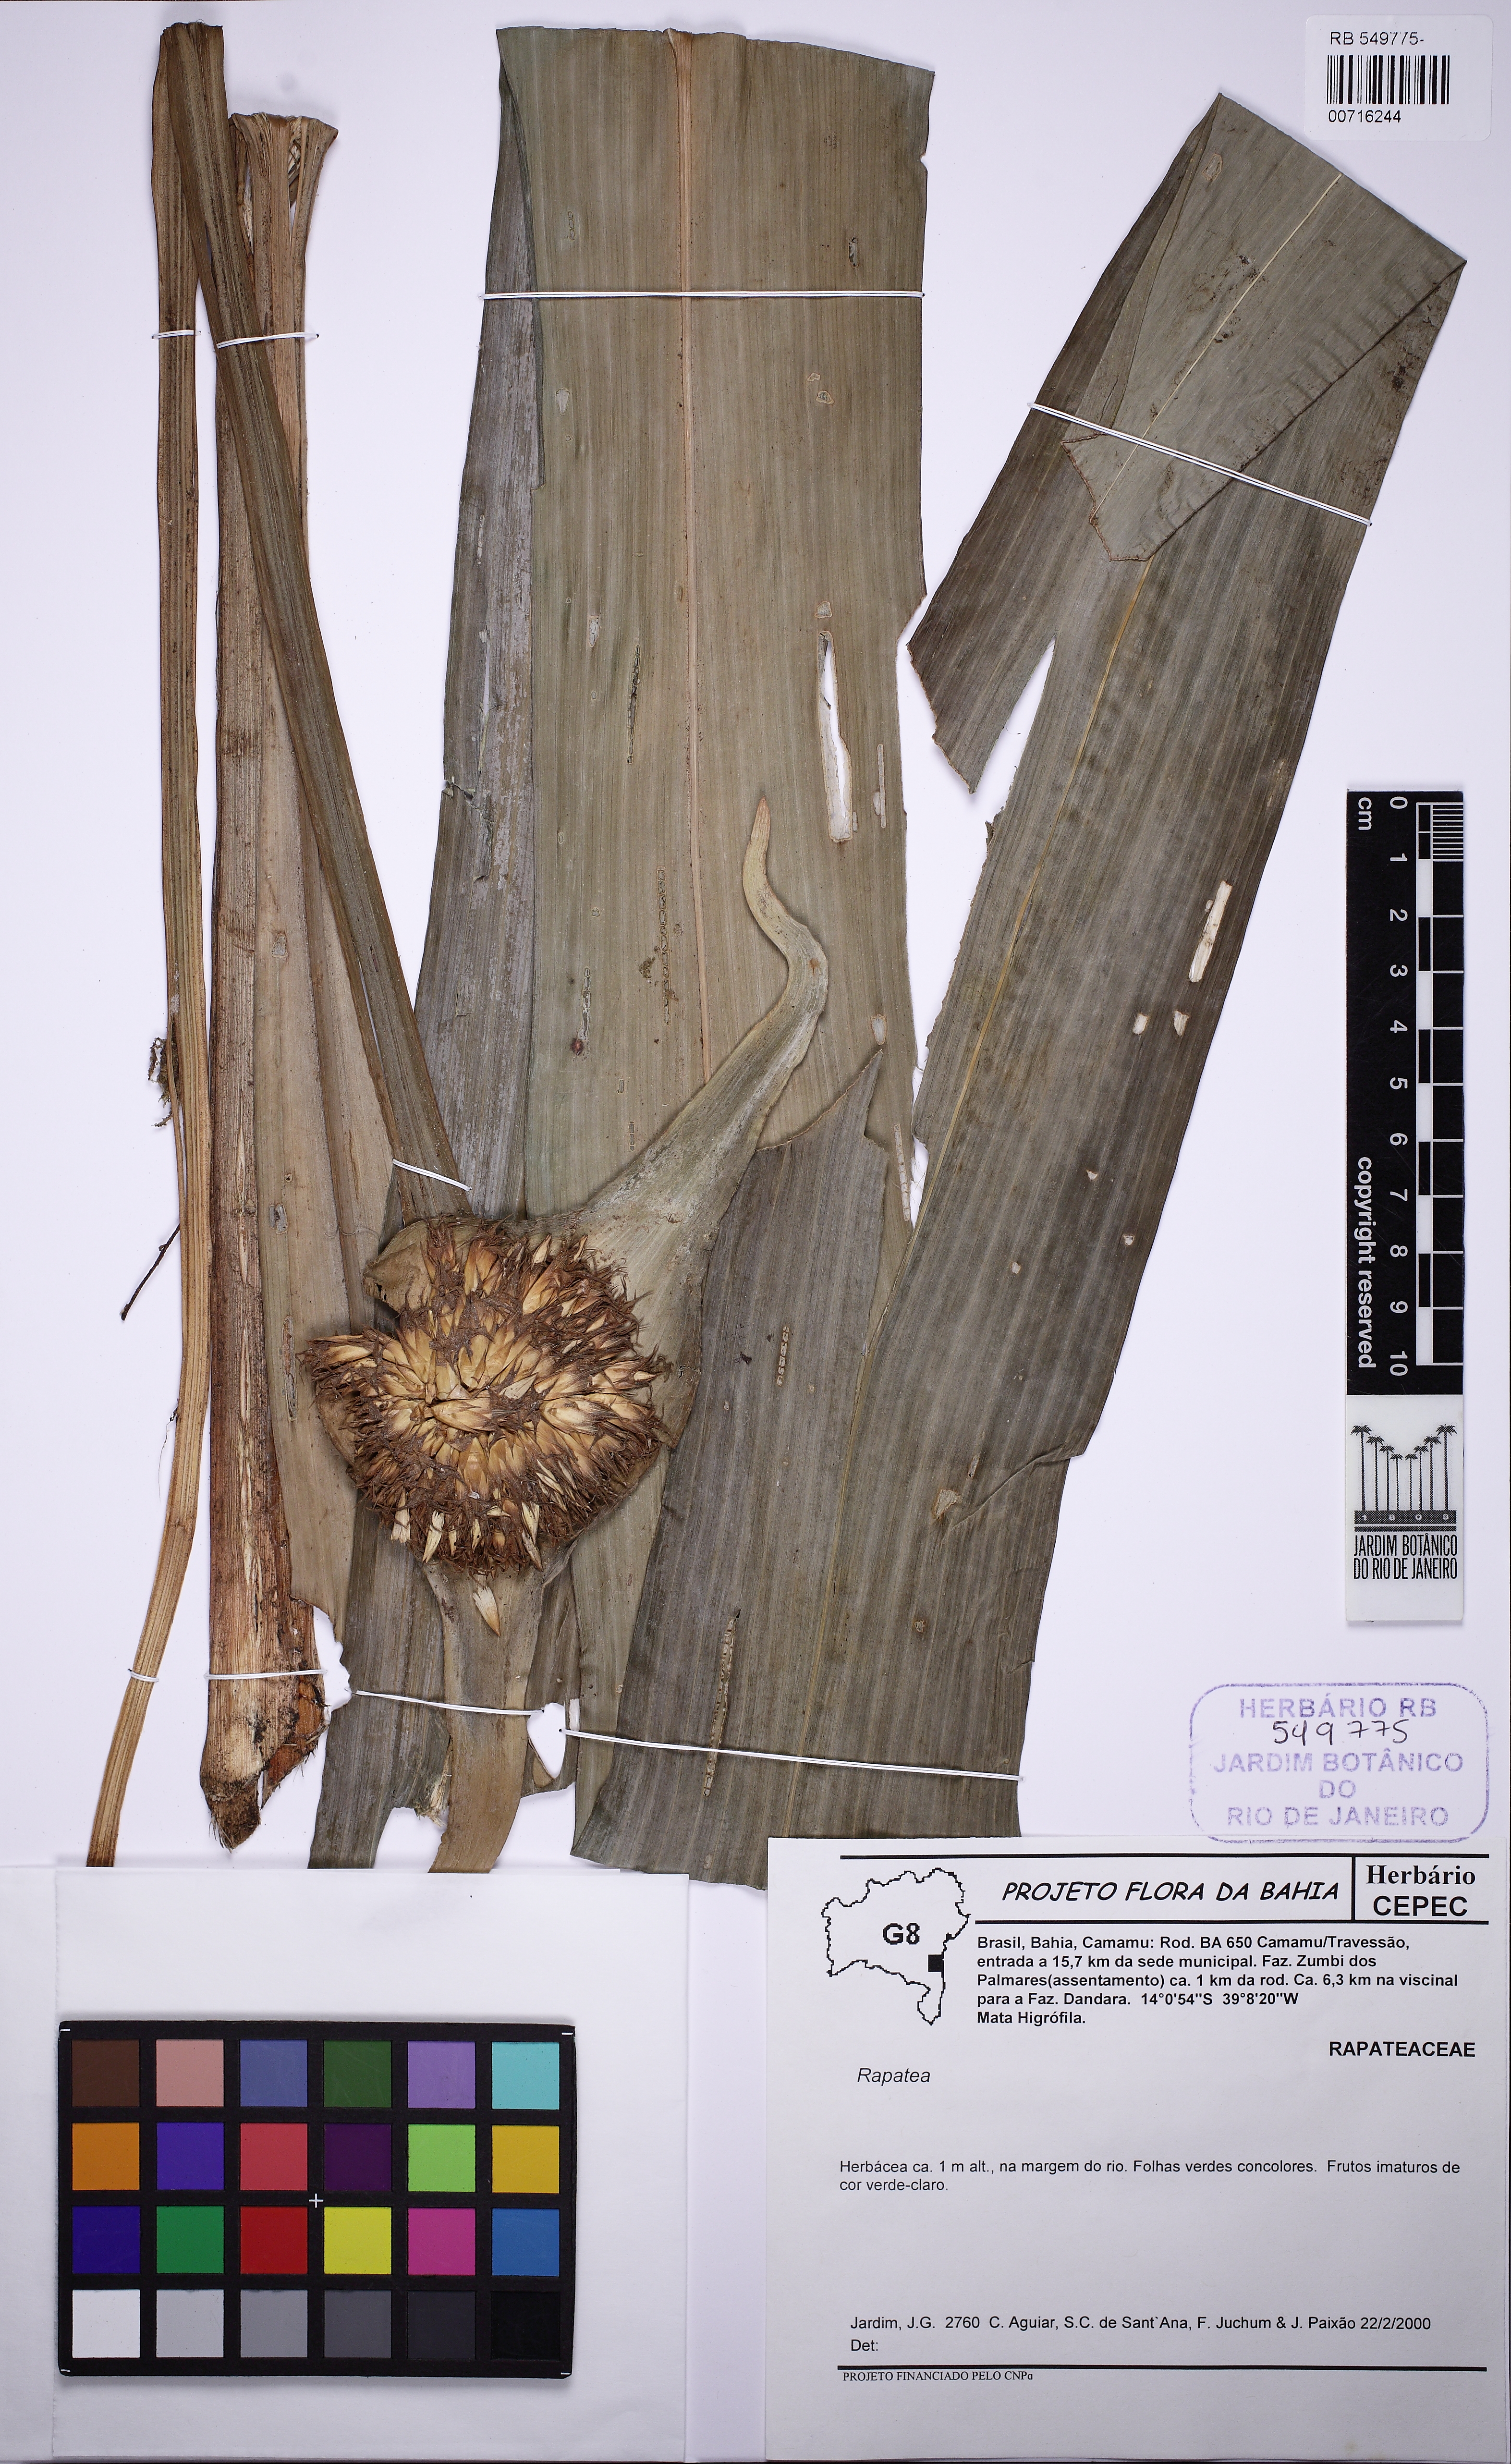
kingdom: Plantae
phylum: Tracheophyta
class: Liliopsida
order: Poales
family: Rapateaceae
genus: Rapatea
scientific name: Rapatea
